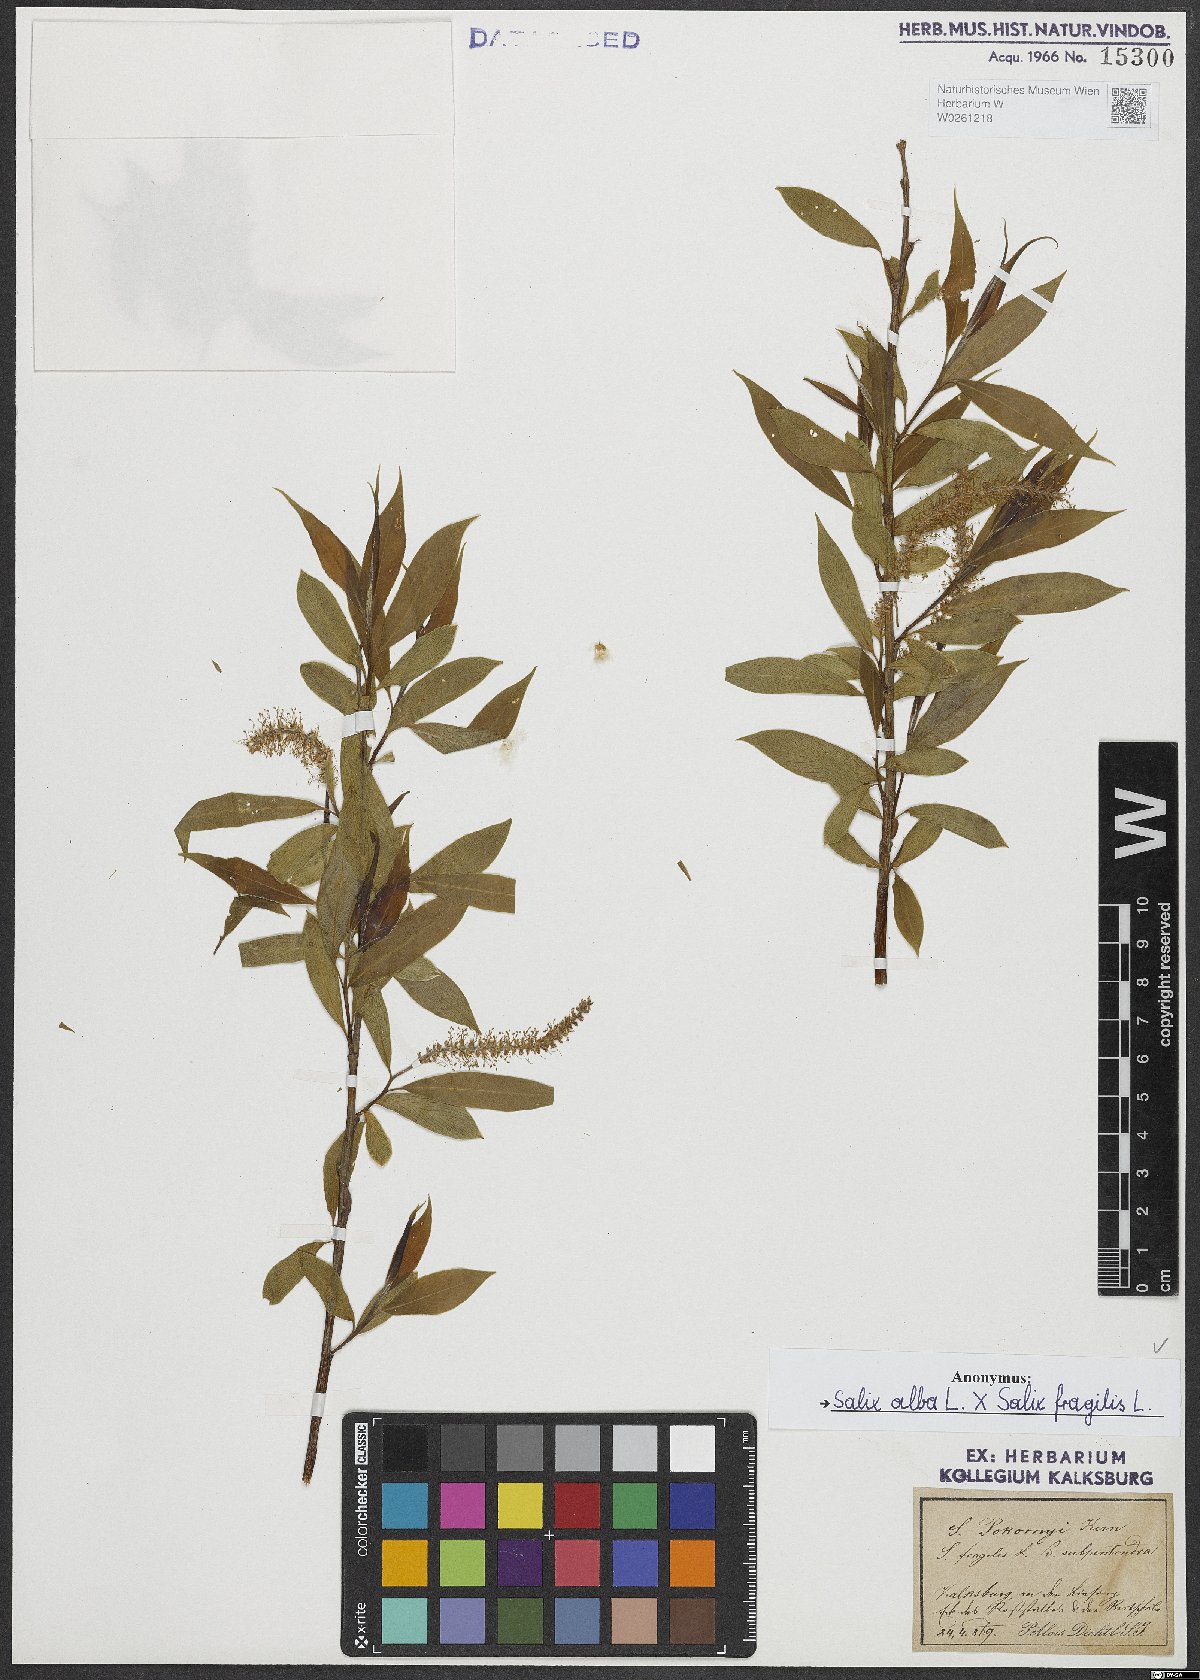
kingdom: Plantae
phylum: Tracheophyta
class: Magnoliopsida
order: Malpighiales
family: Salicaceae
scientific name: Salicaceae
